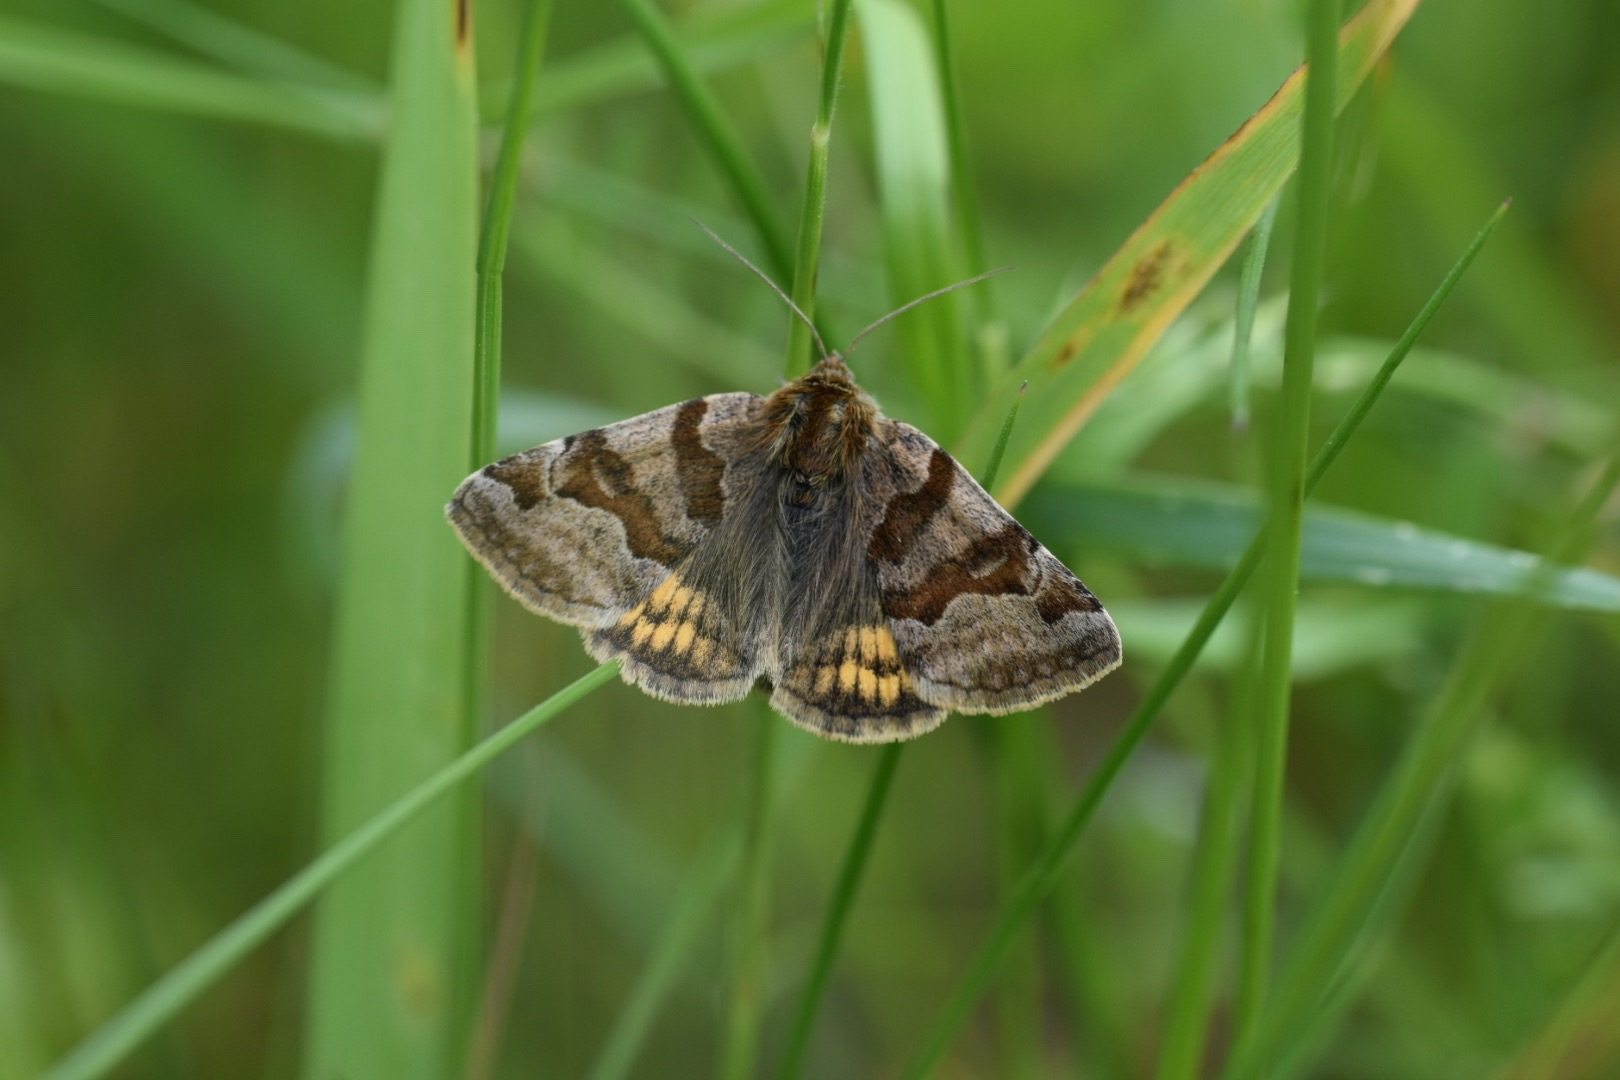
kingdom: Animalia
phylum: Arthropoda
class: Insecta
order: Lepidoptera
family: Erebidae
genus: Euclidia
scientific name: Euclidia glyphica
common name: Brun kløverugle
